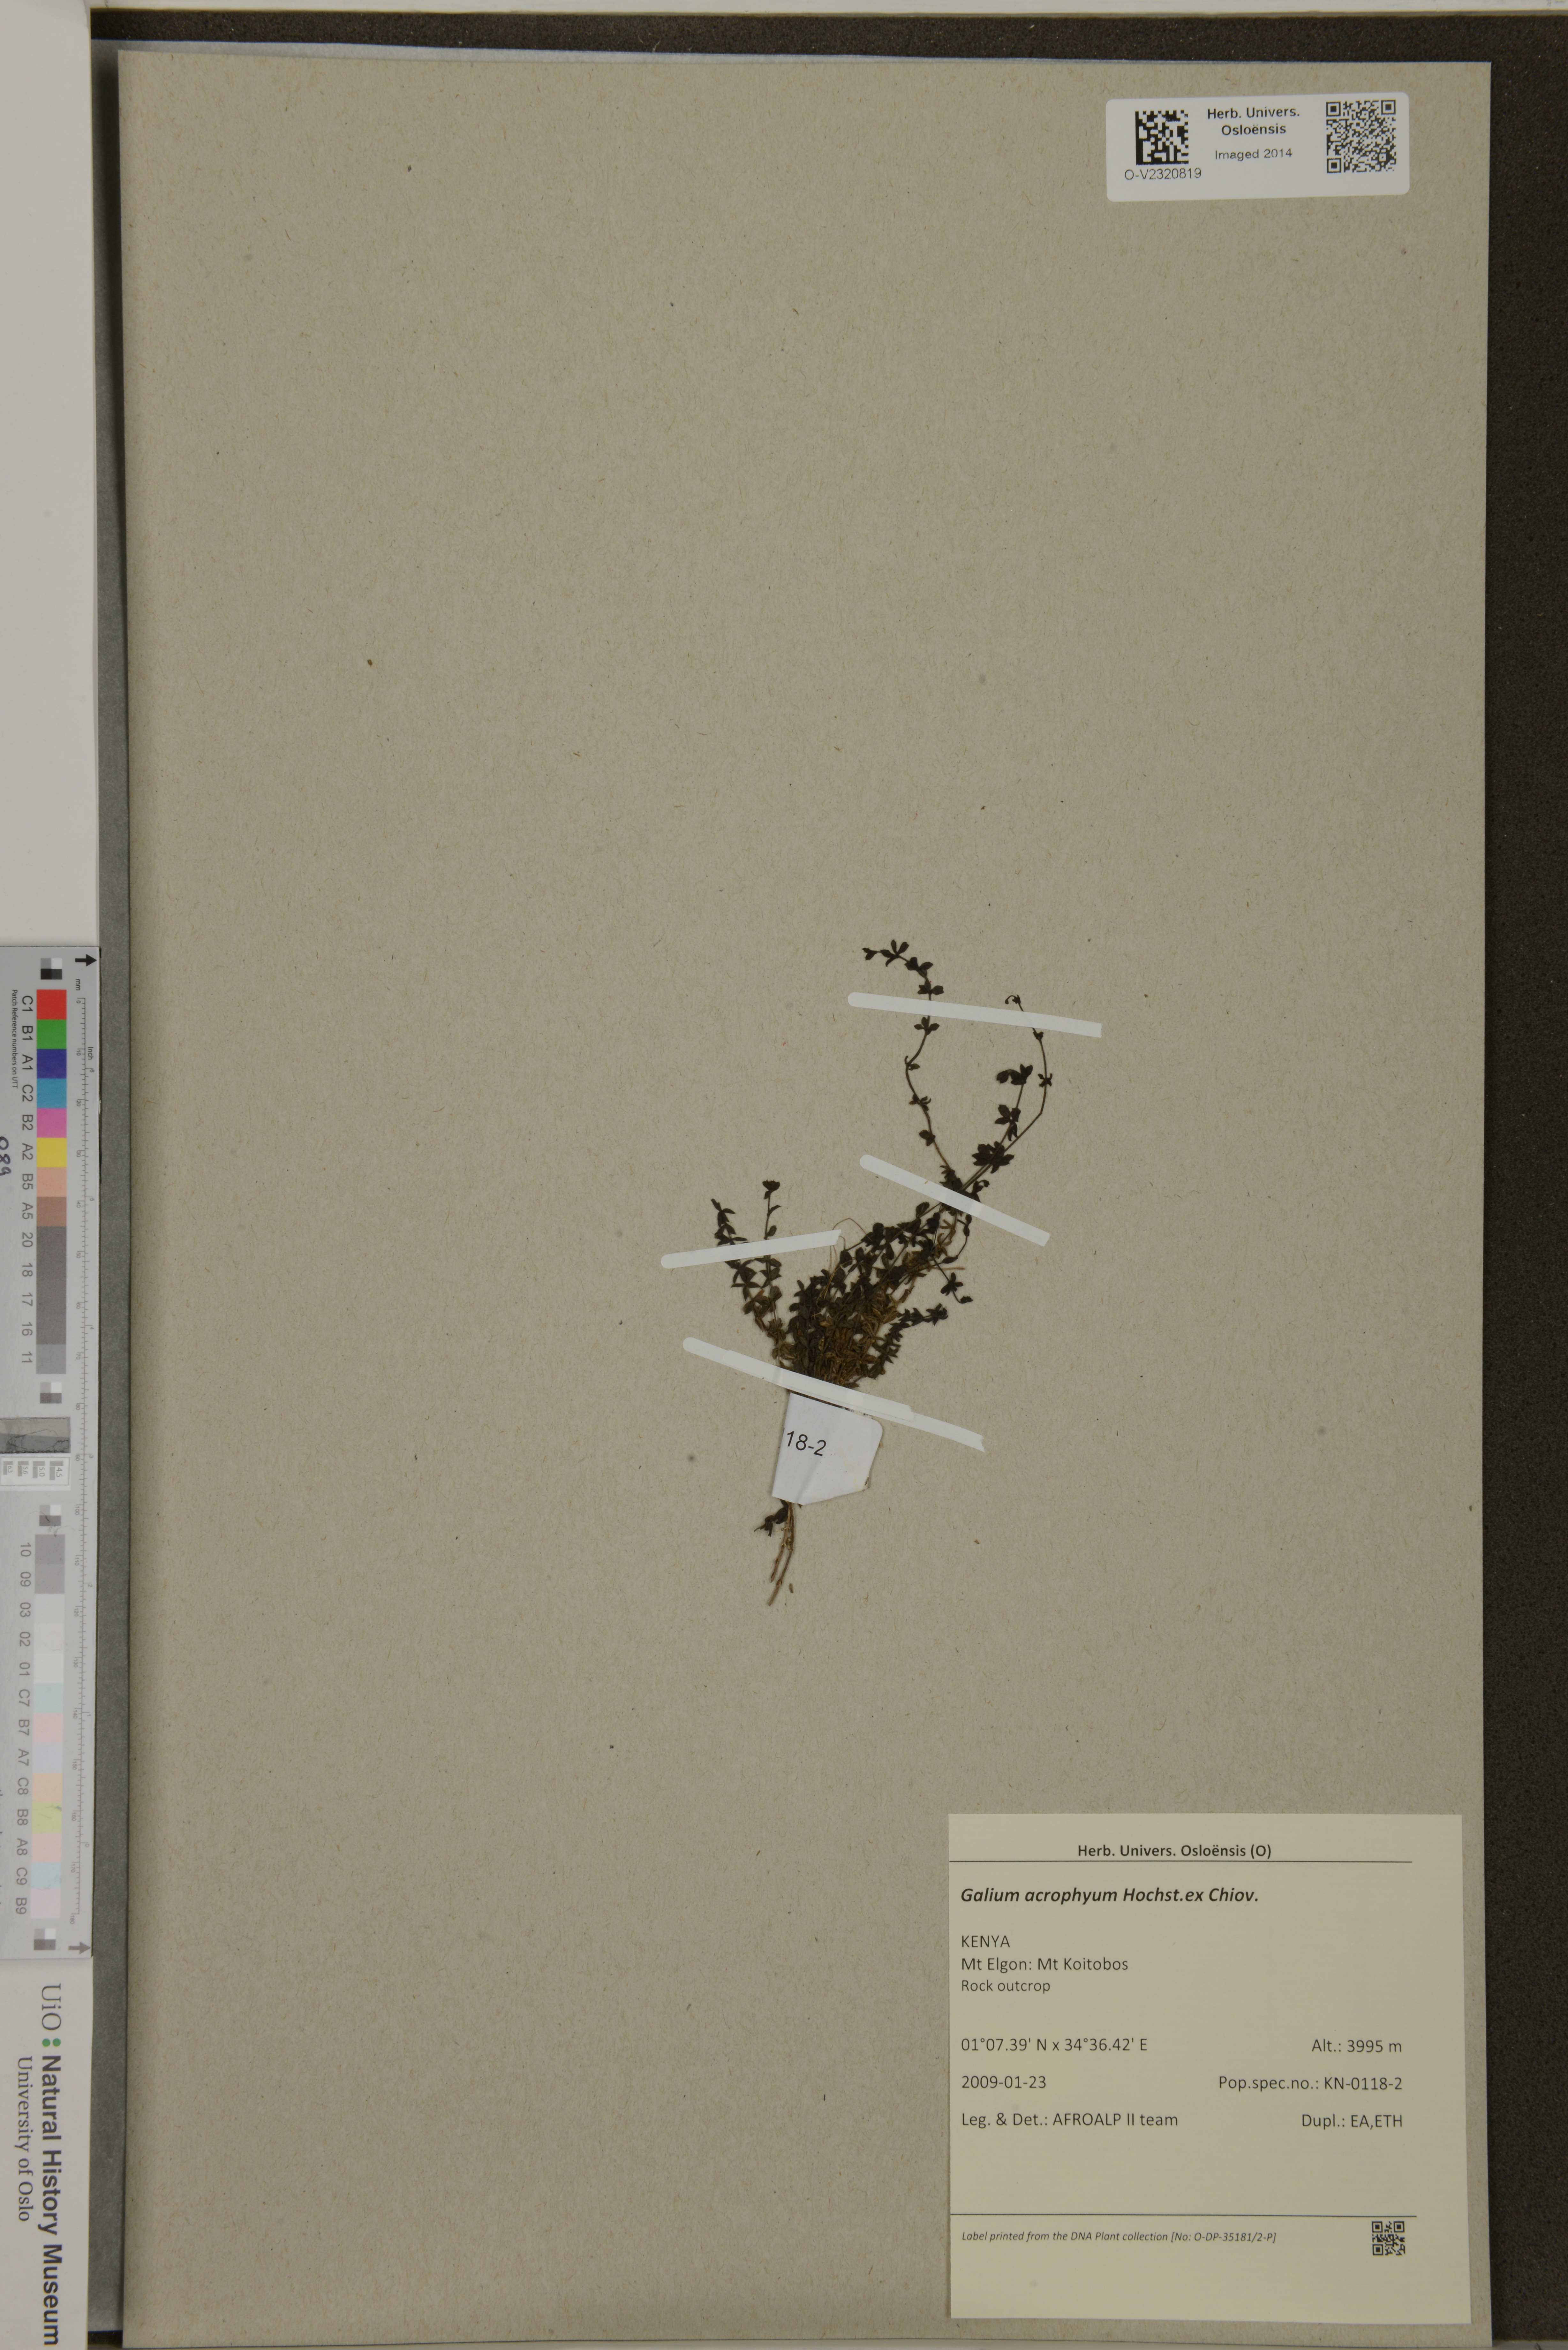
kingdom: Plantae
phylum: Tracheophyta
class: Magnoliopsida
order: Gentianales
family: Rubiaceae
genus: Galium
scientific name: Galium acrophyum
